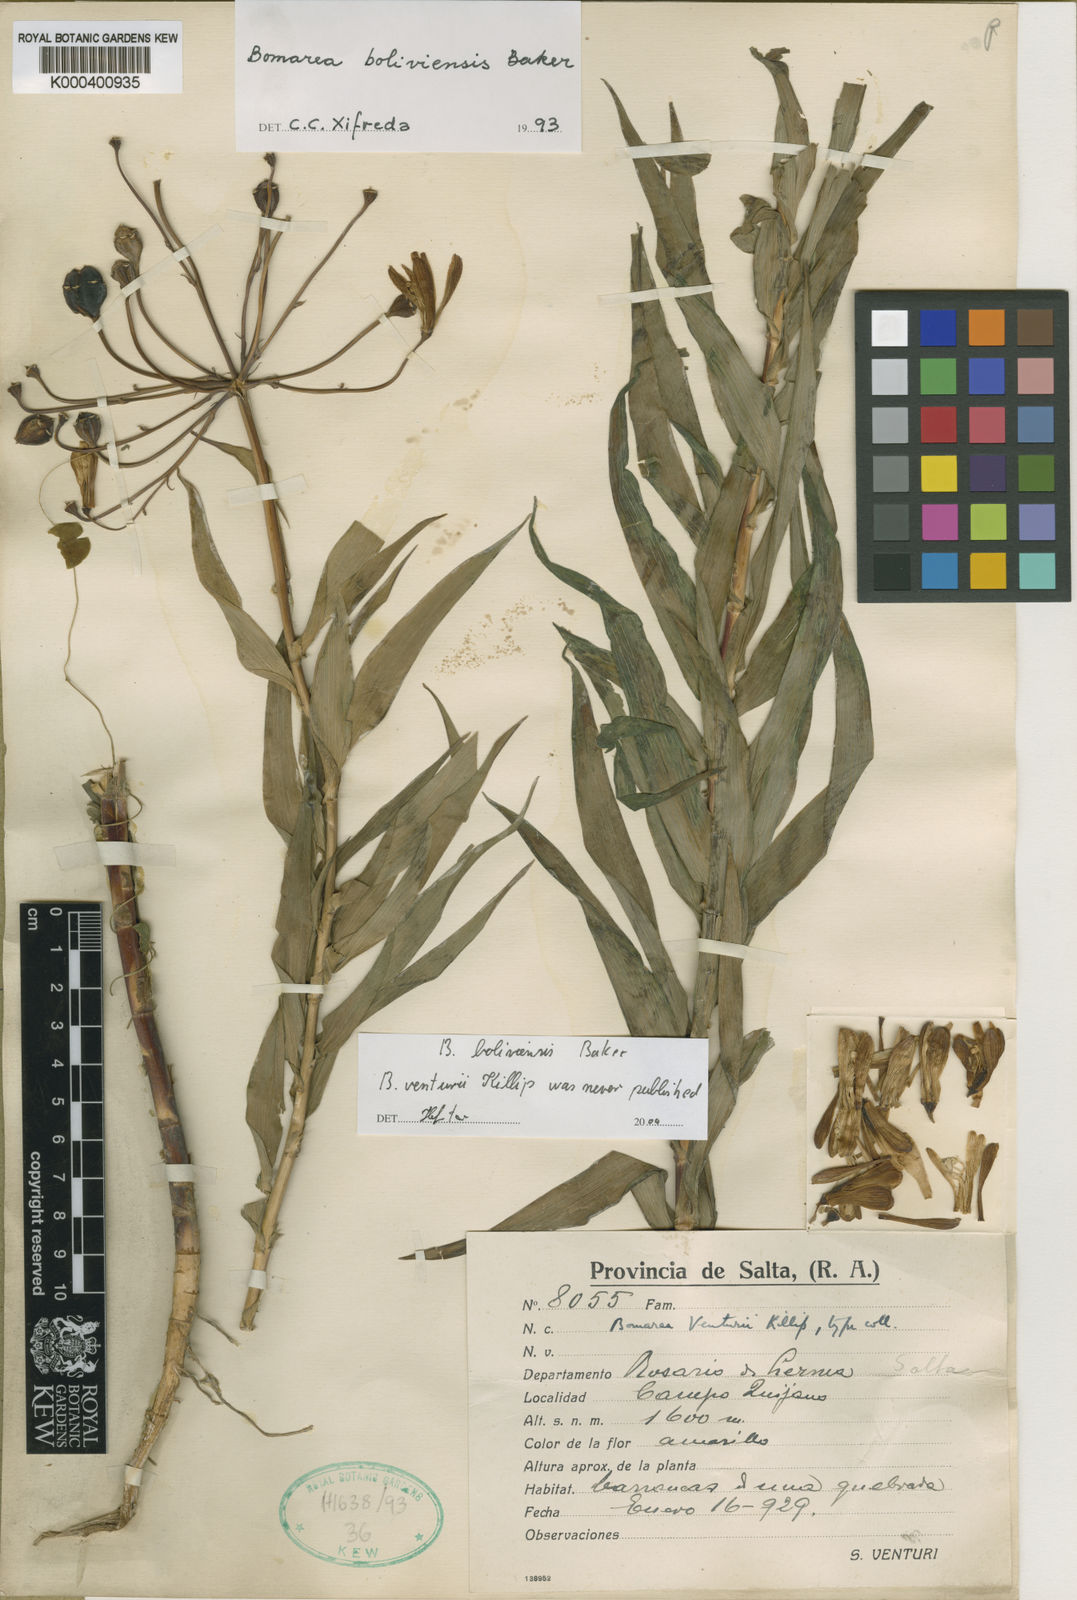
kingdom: Plantae
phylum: Tracheophyta
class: Liliopsida
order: Liliales
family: Alstroemeriaceae
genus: Bomarea
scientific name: Bomarea boliviensis
